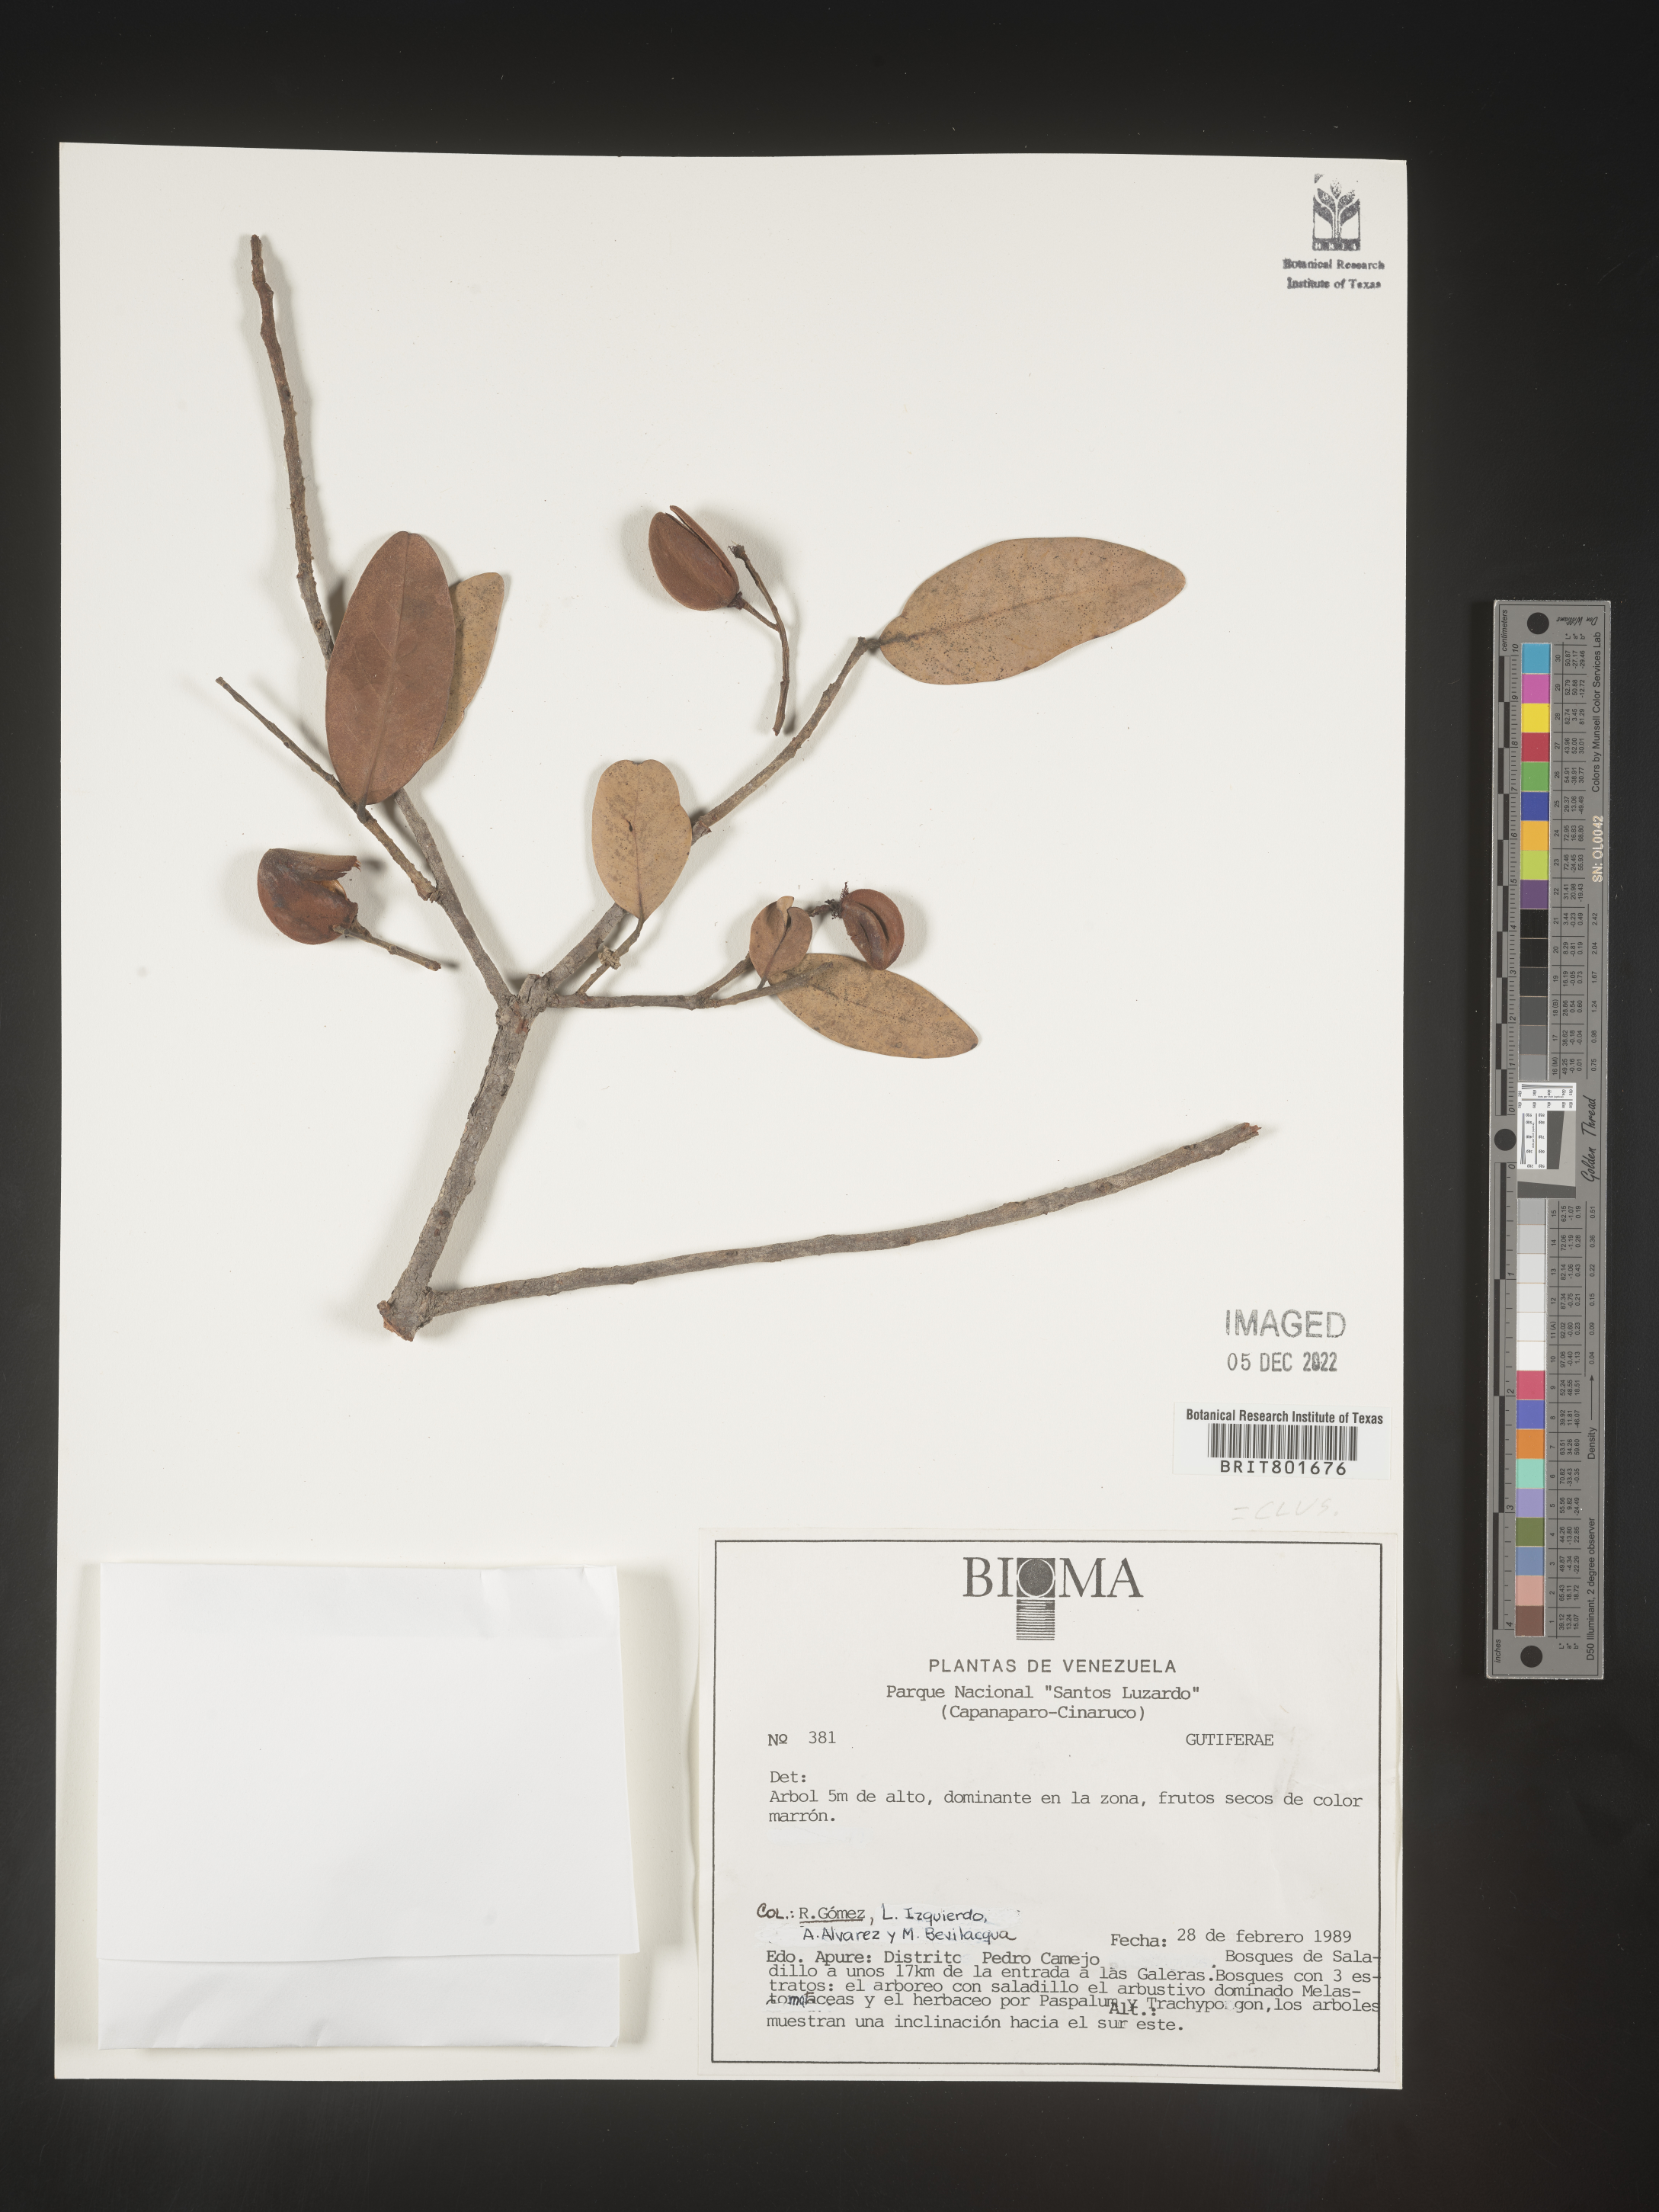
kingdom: Plantae
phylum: Tracheophyta
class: Magnoliopsida
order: Malpighiales
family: Clusiaceae
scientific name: Clusiaceae
